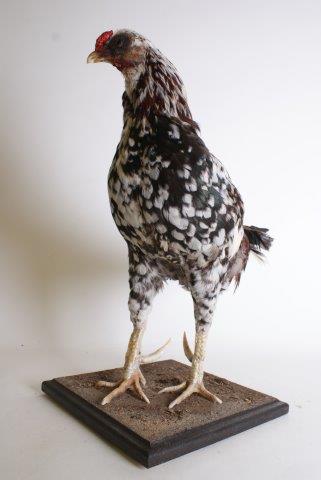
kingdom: Animalia
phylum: Chordata
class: Aves
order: Galliformes
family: Phasianidae
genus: Gallus
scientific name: Gallus gallus
